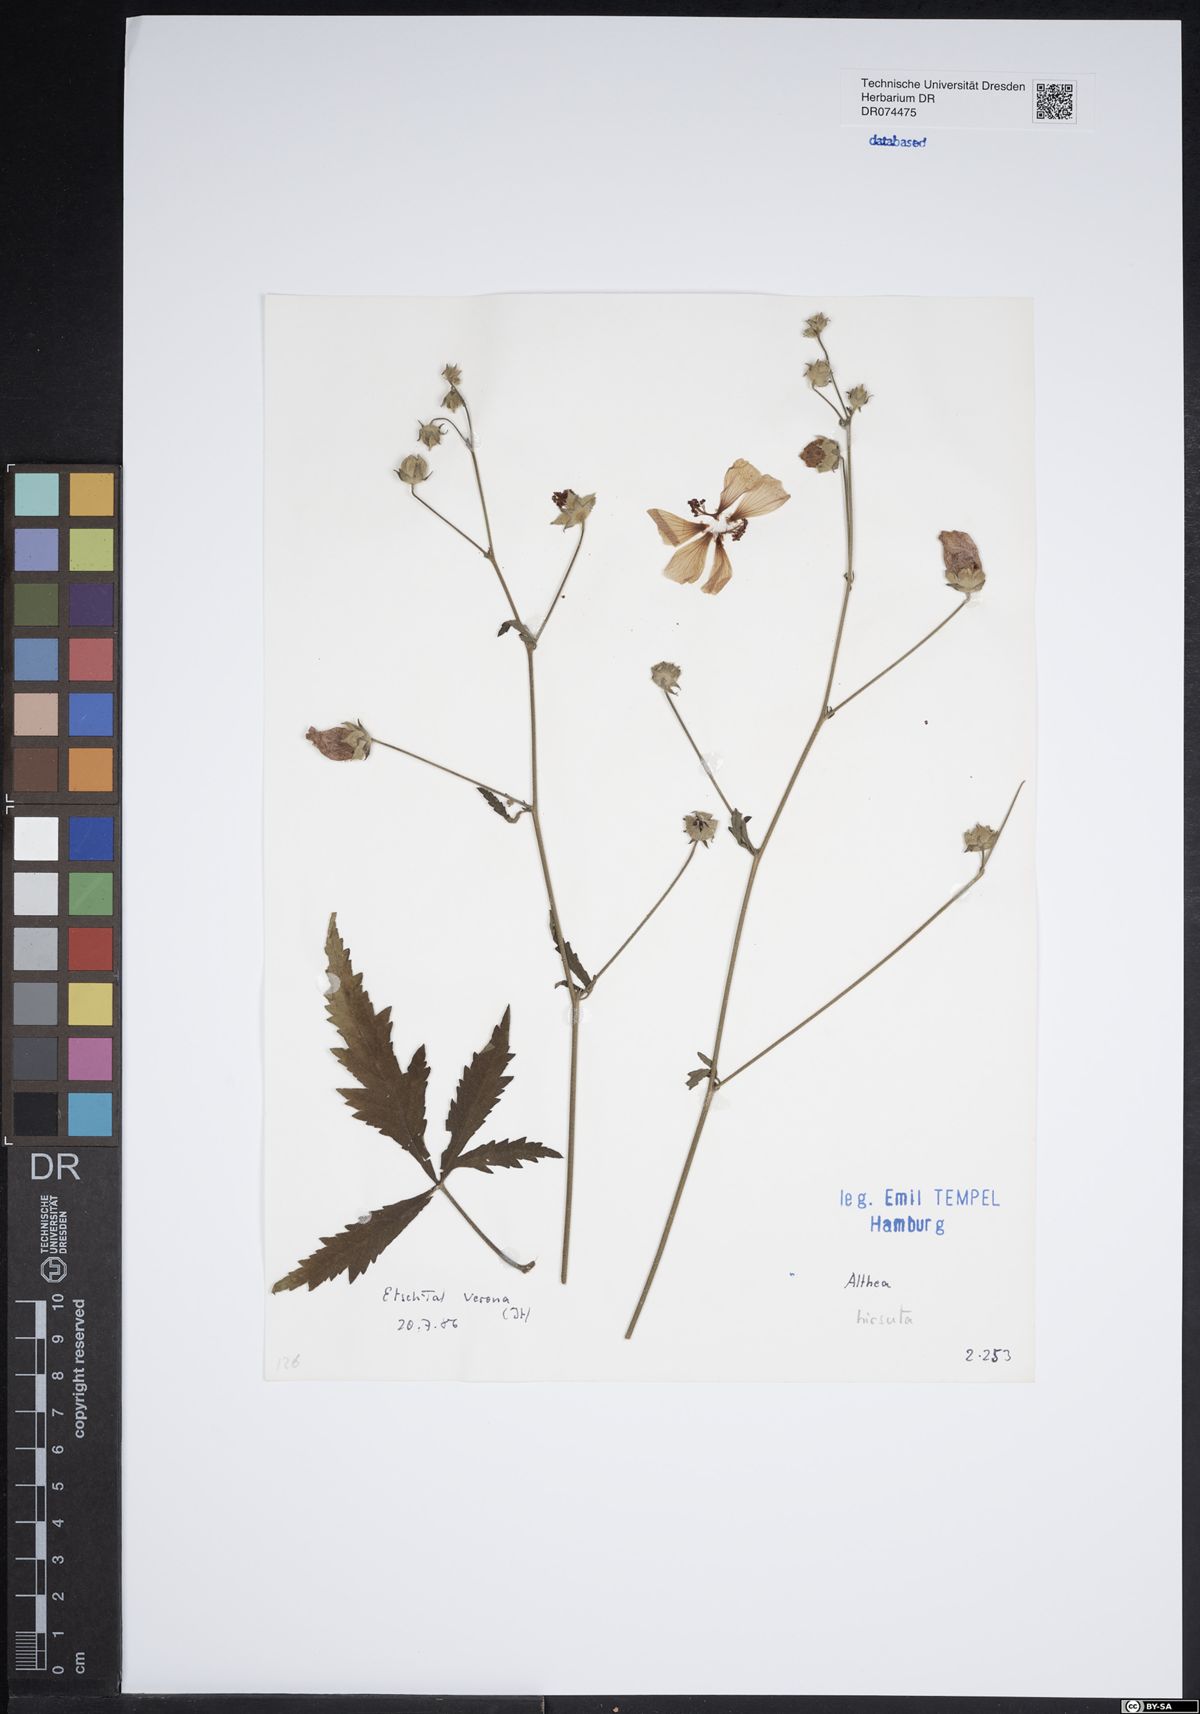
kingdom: Plantae
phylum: Tracheophyta
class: Magnoliopsida
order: Malvales
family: Malvaceae
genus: Althaea
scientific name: Althaea hirsuta
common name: Rough marsh-mallow
